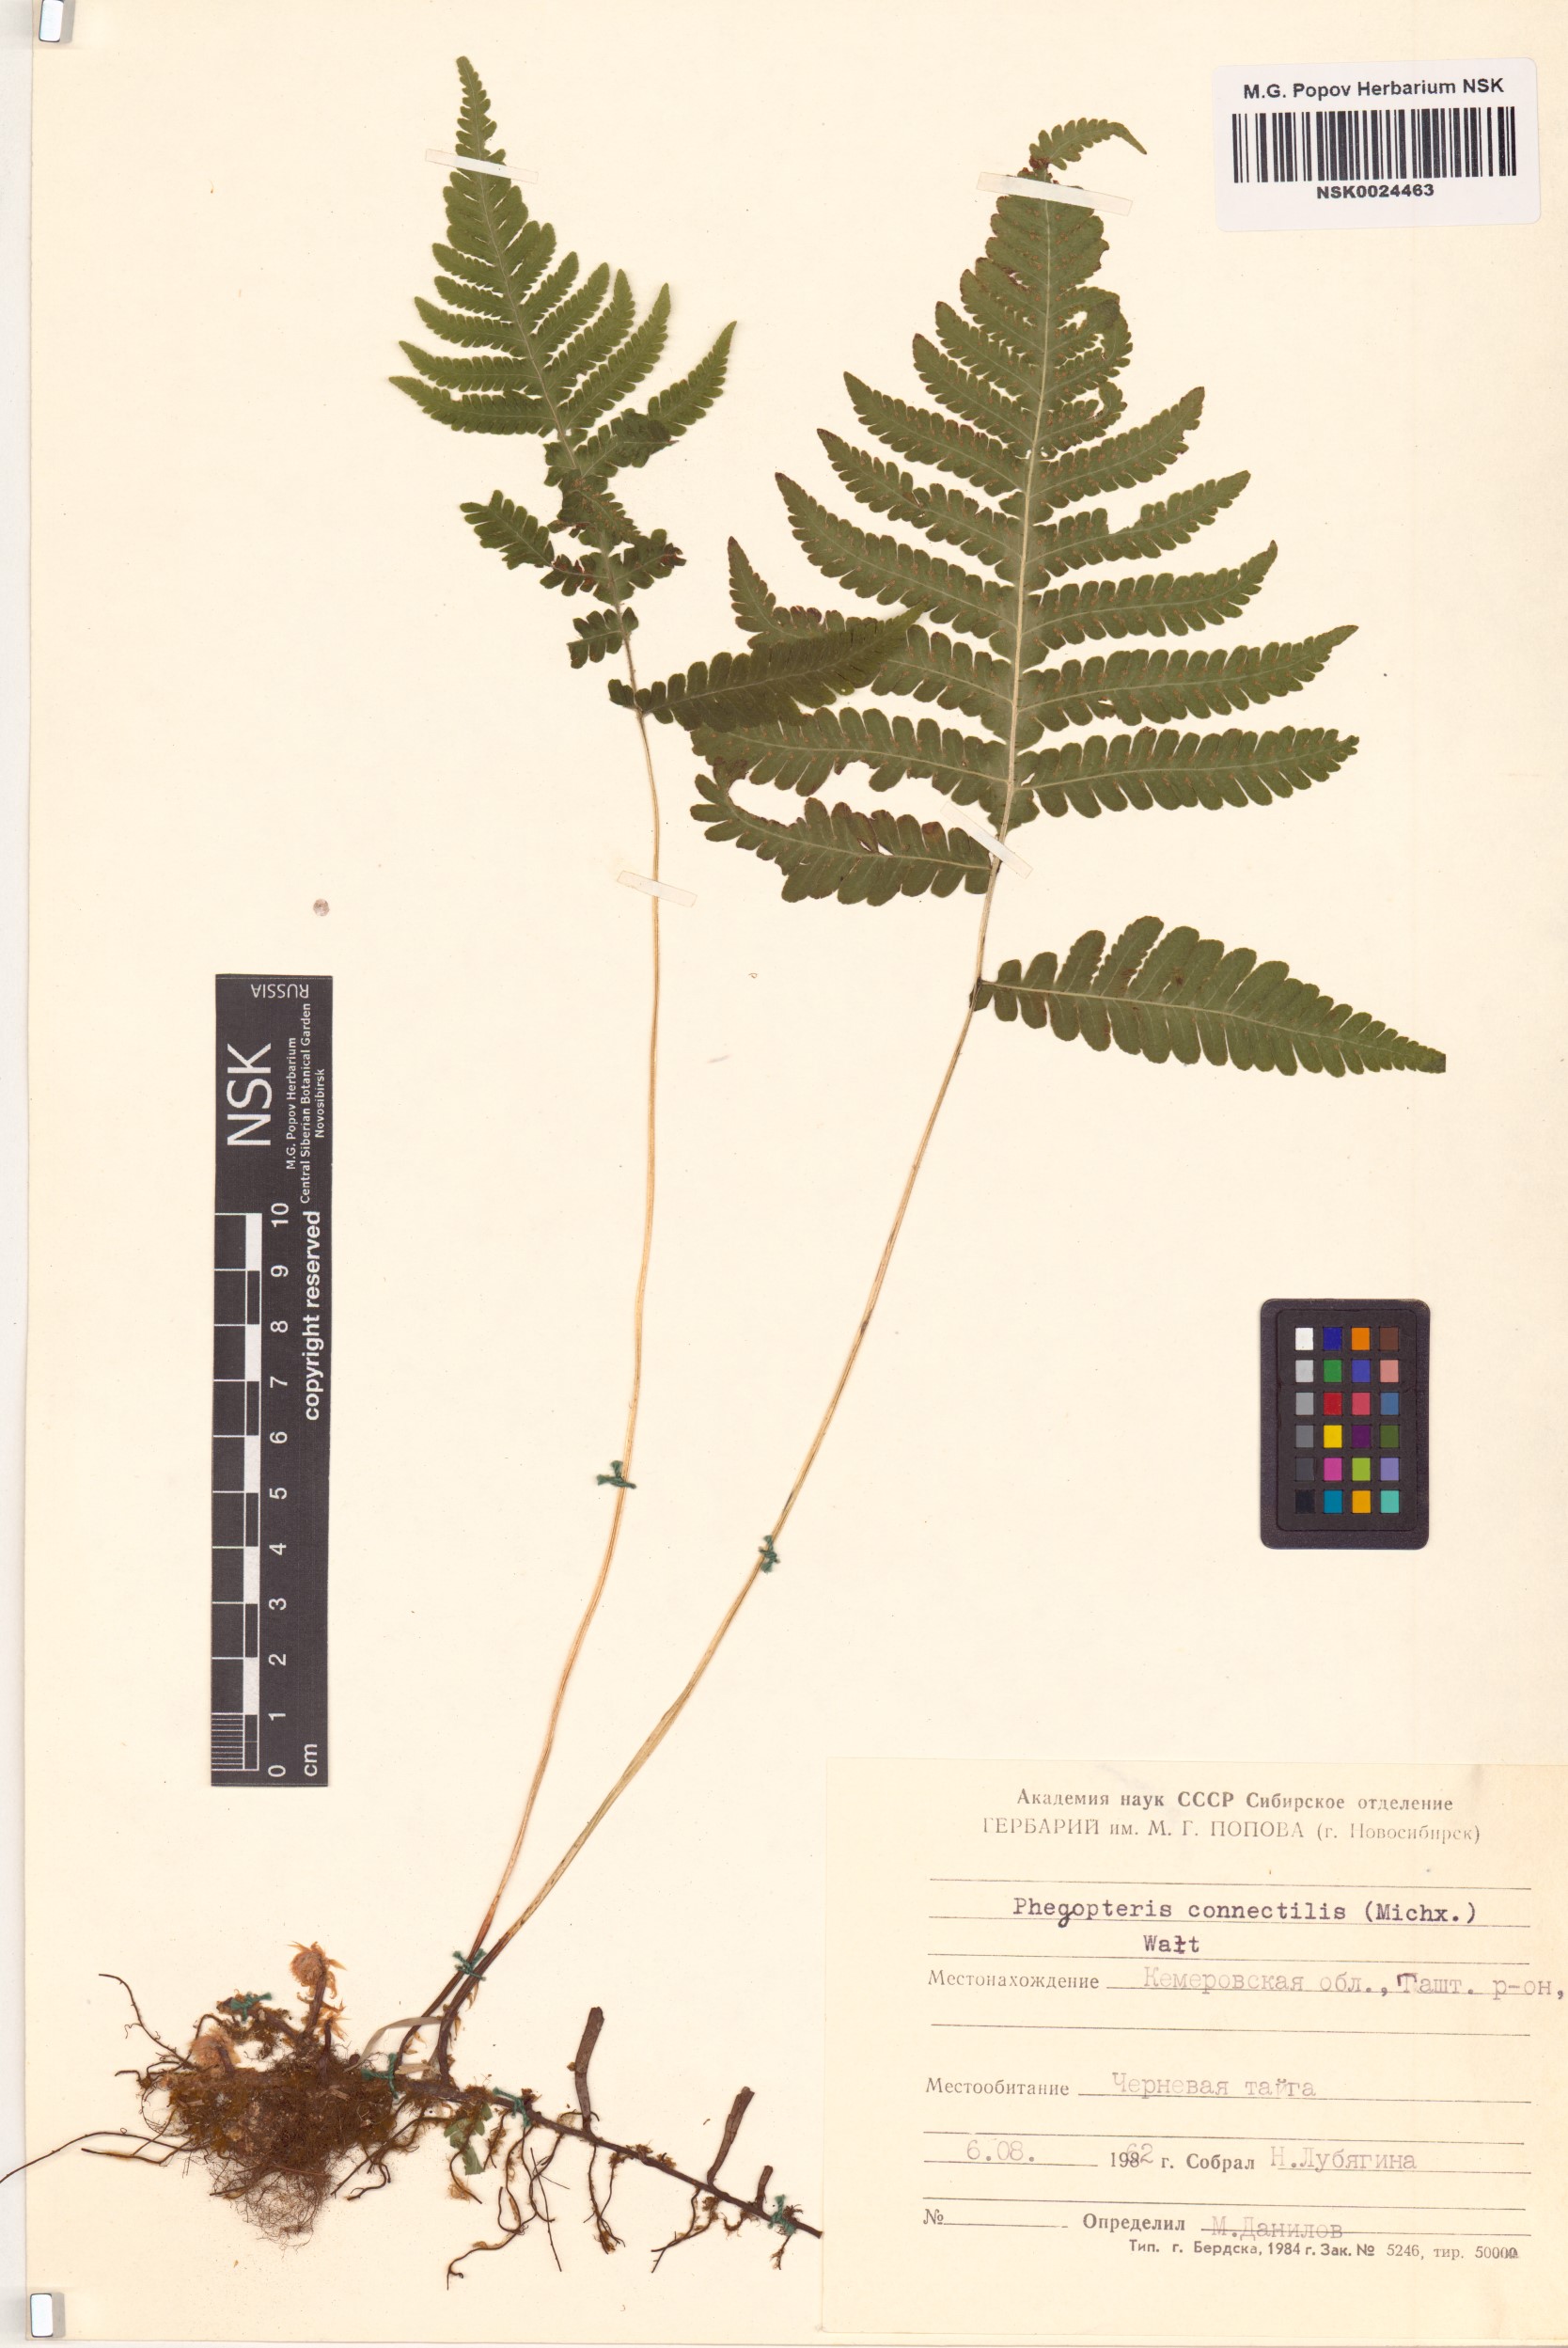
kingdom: Plantae
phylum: Tracheophyta
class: Polypodiopsida
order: Polypodiales
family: Thelypteridaceae
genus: Phegopteris
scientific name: Phegopteris connectilis
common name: Beech fern
